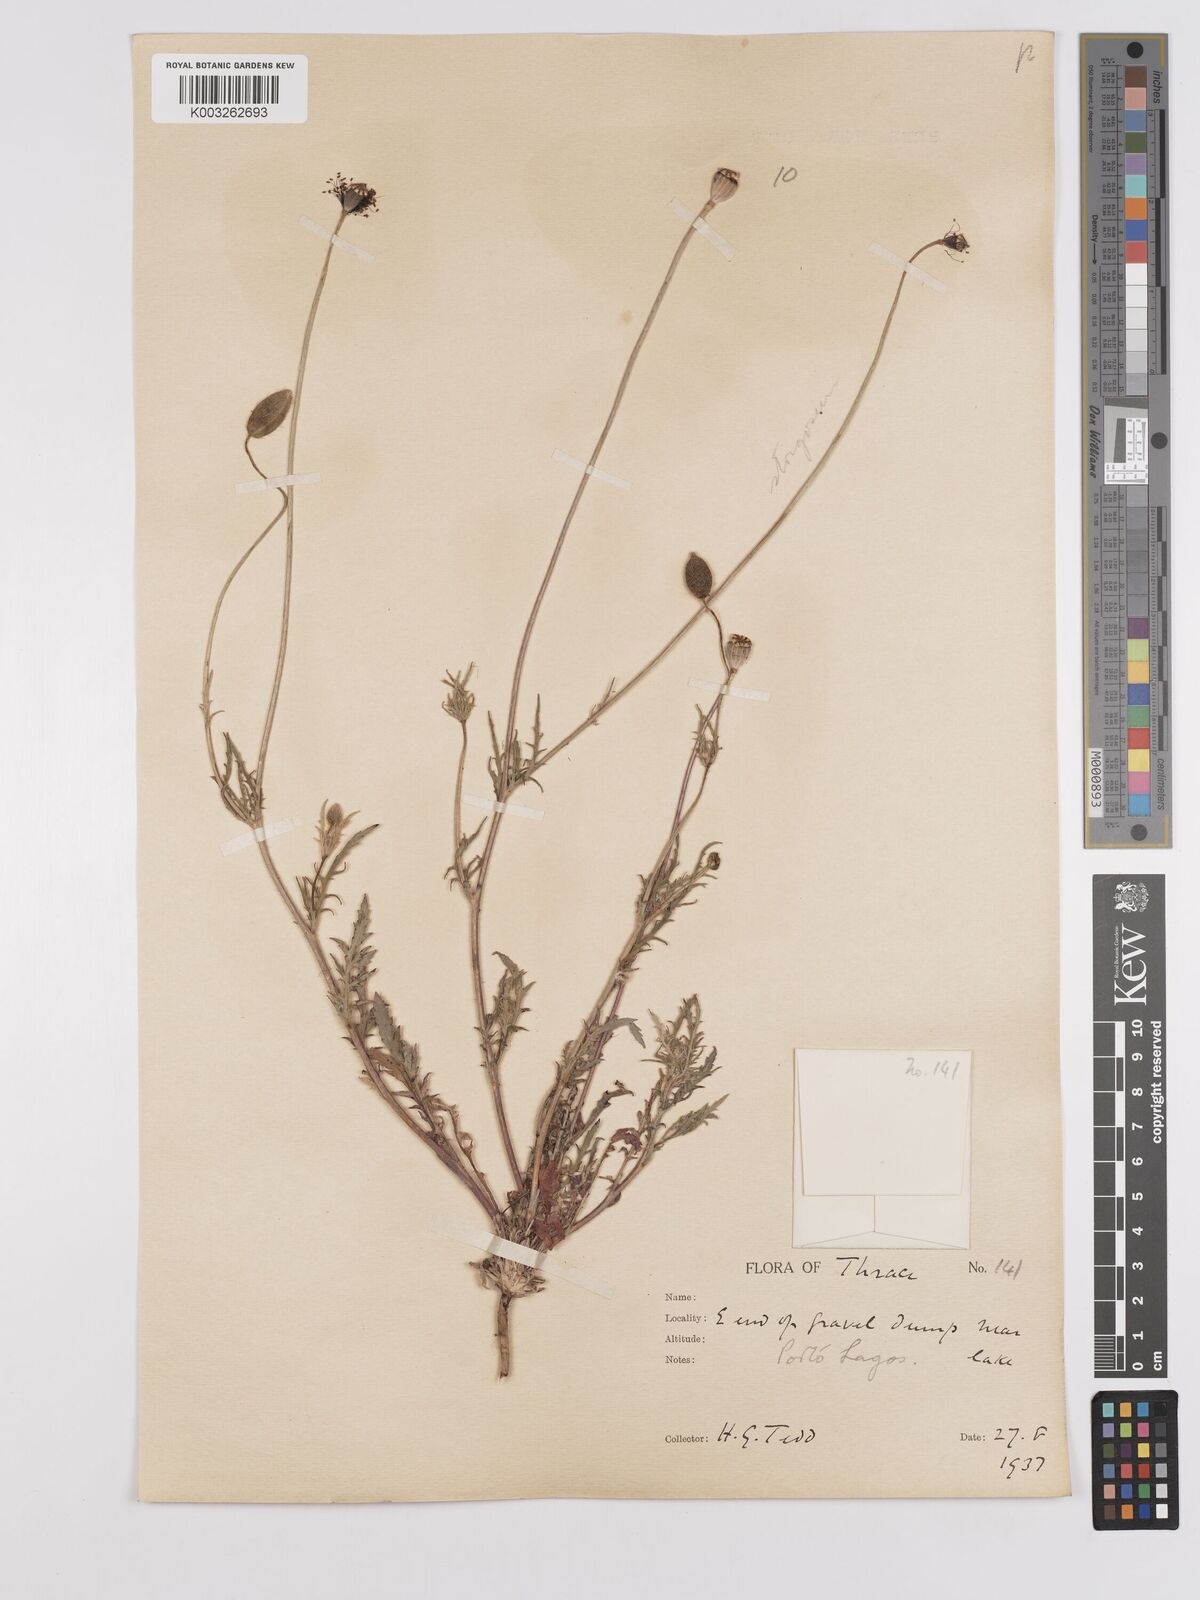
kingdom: Plantae
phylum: Tracheophyta
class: Magnoliopsida
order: Ranunculales
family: Papaveraceae
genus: Papaver
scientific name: Papaver
